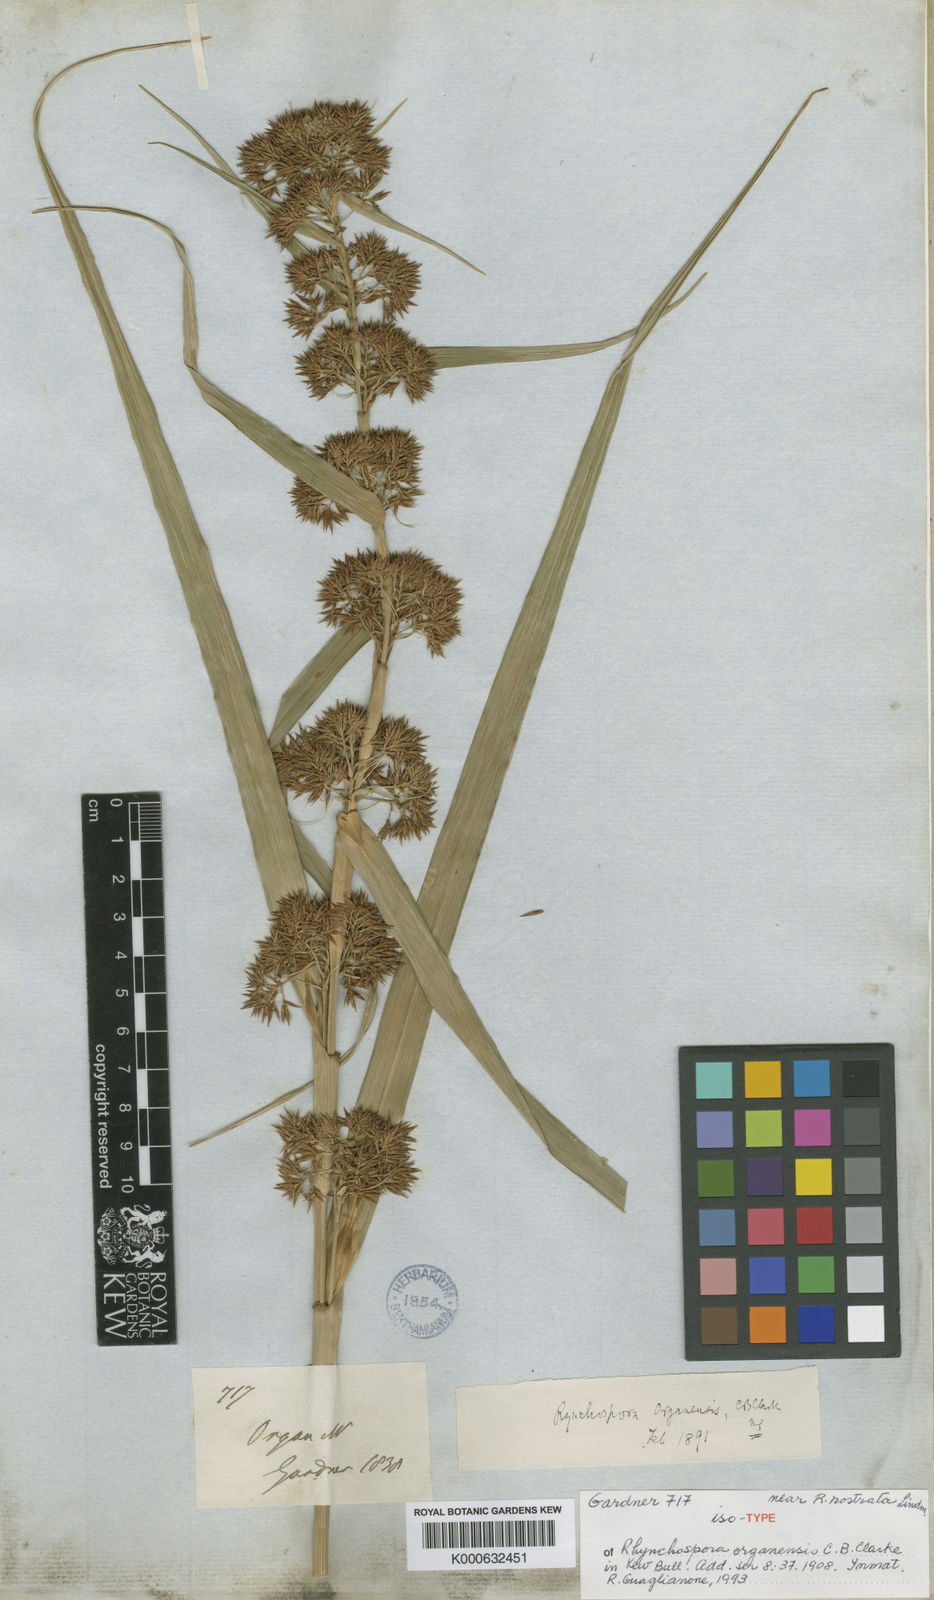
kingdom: Plantae
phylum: Tracheophyta
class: Liliopsida
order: Poales
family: Cyperaceae
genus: Rhynchospora
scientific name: Rhynchospora organensis
